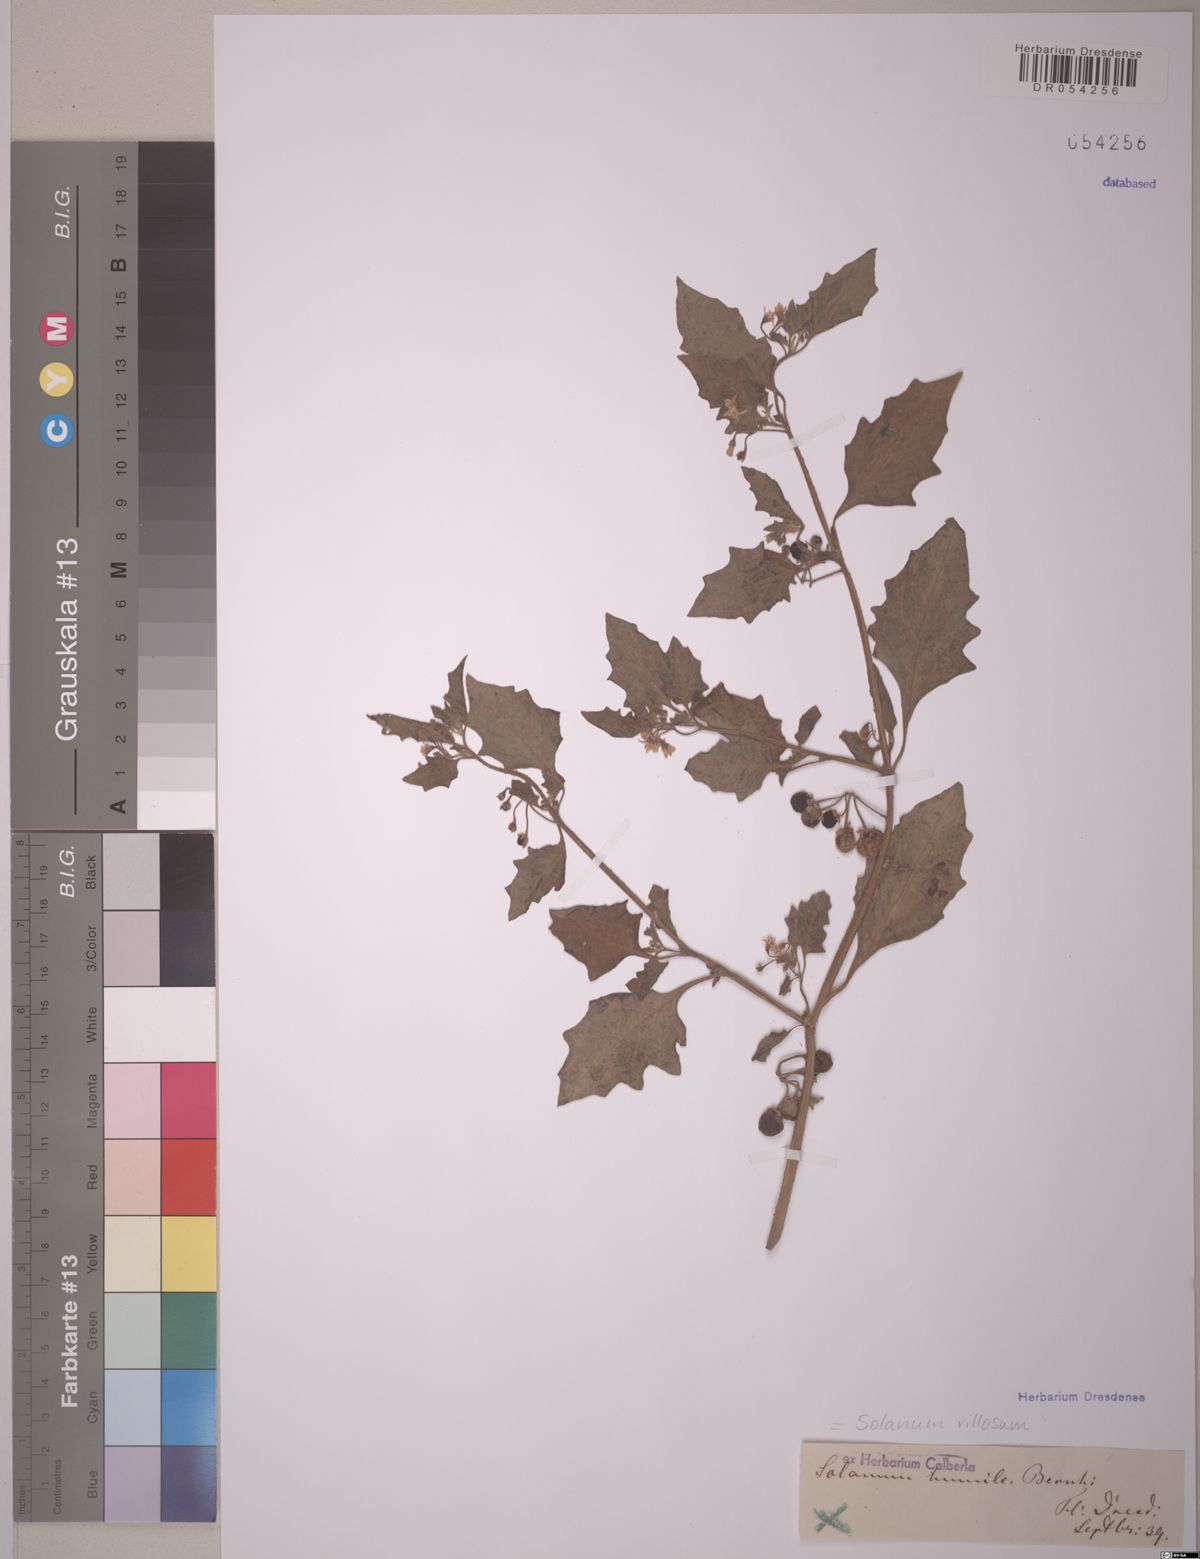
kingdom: Plantae
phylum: Tracheophyta
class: Magnoliopsida
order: Solanales
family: Solanaceae
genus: Solanum
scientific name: Solanum villosum
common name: Red nightshade
